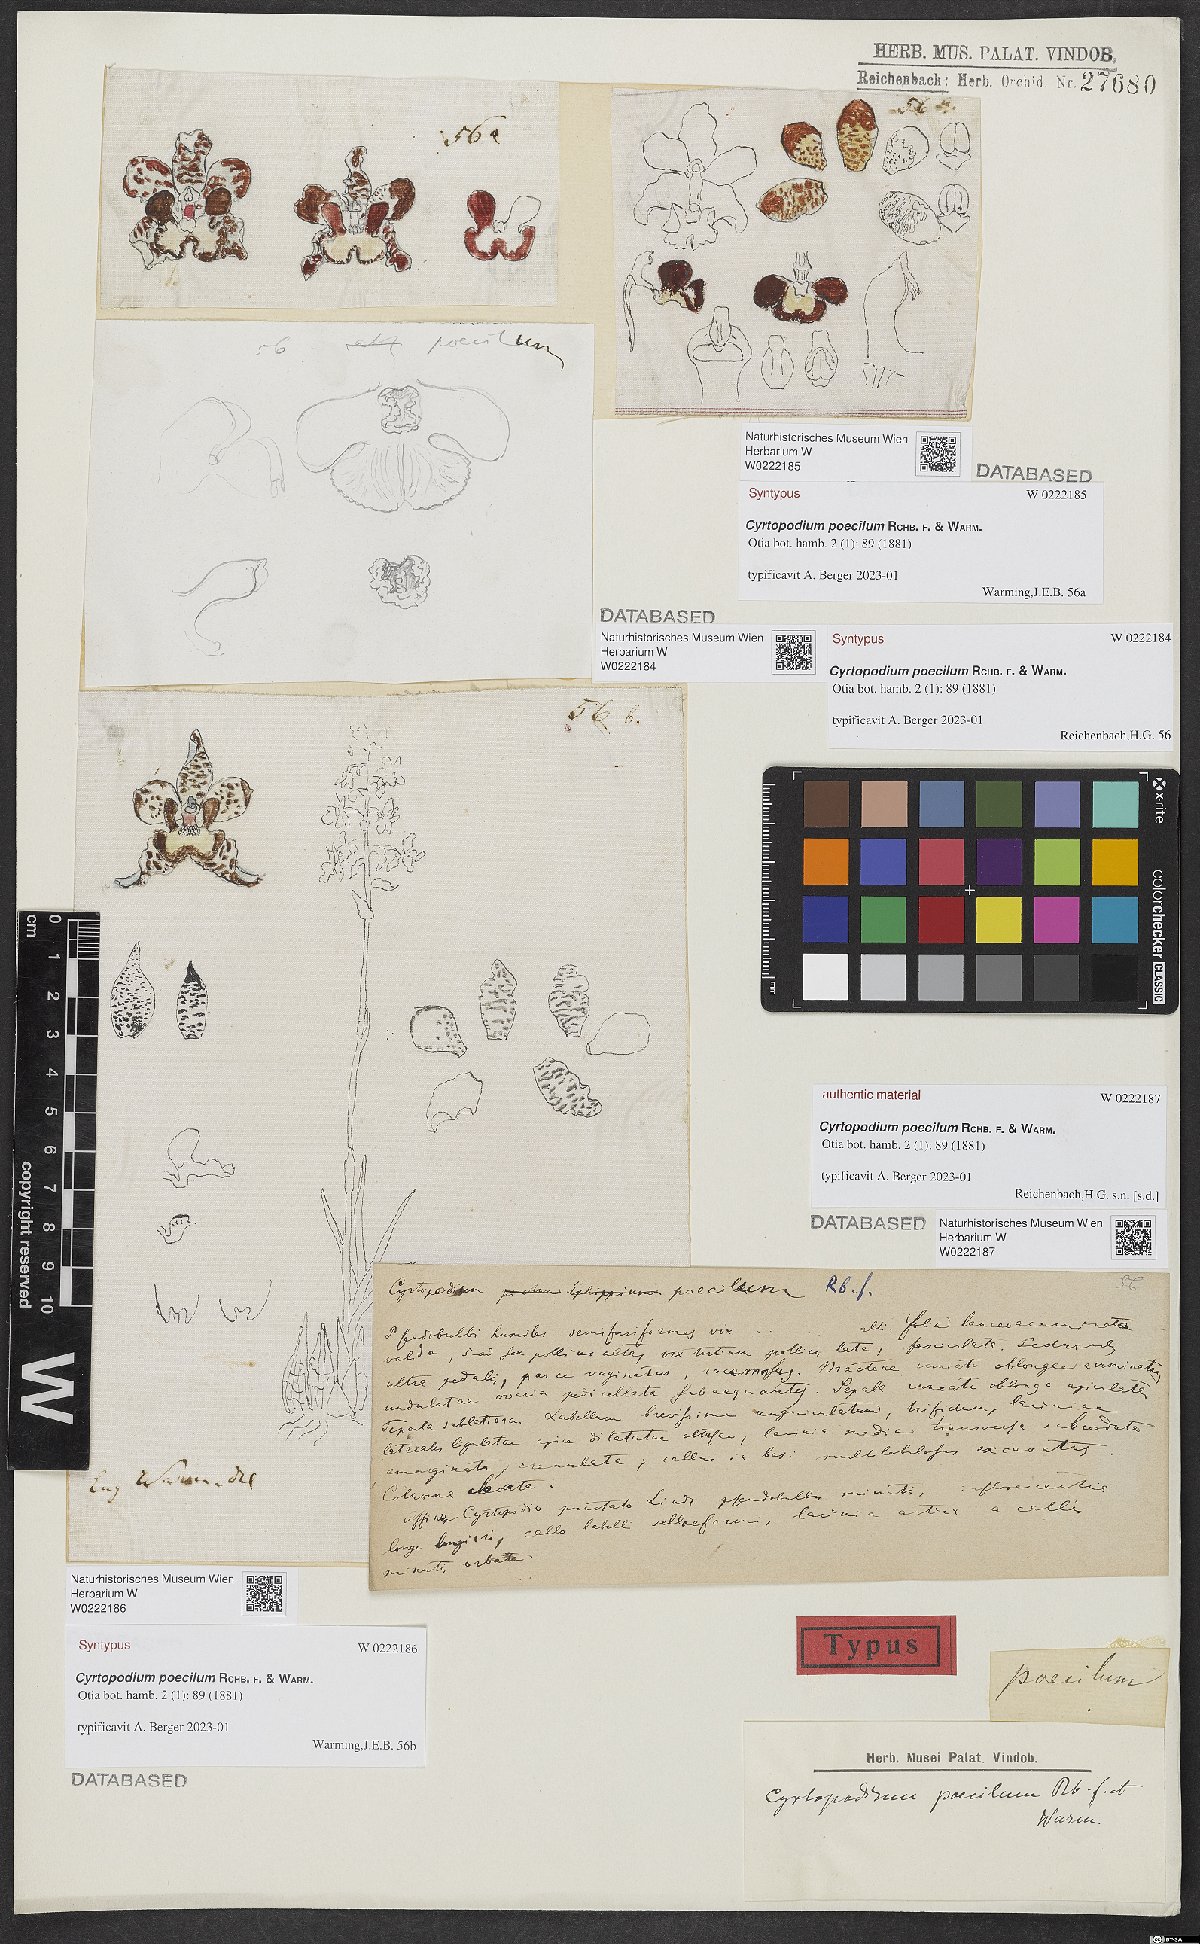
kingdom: Plantae
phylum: Tracheophyta
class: Liliopsida
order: Asparagales
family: Orchidaceae
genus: Cyrtopodium
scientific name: Cyrtopodium poecilum
